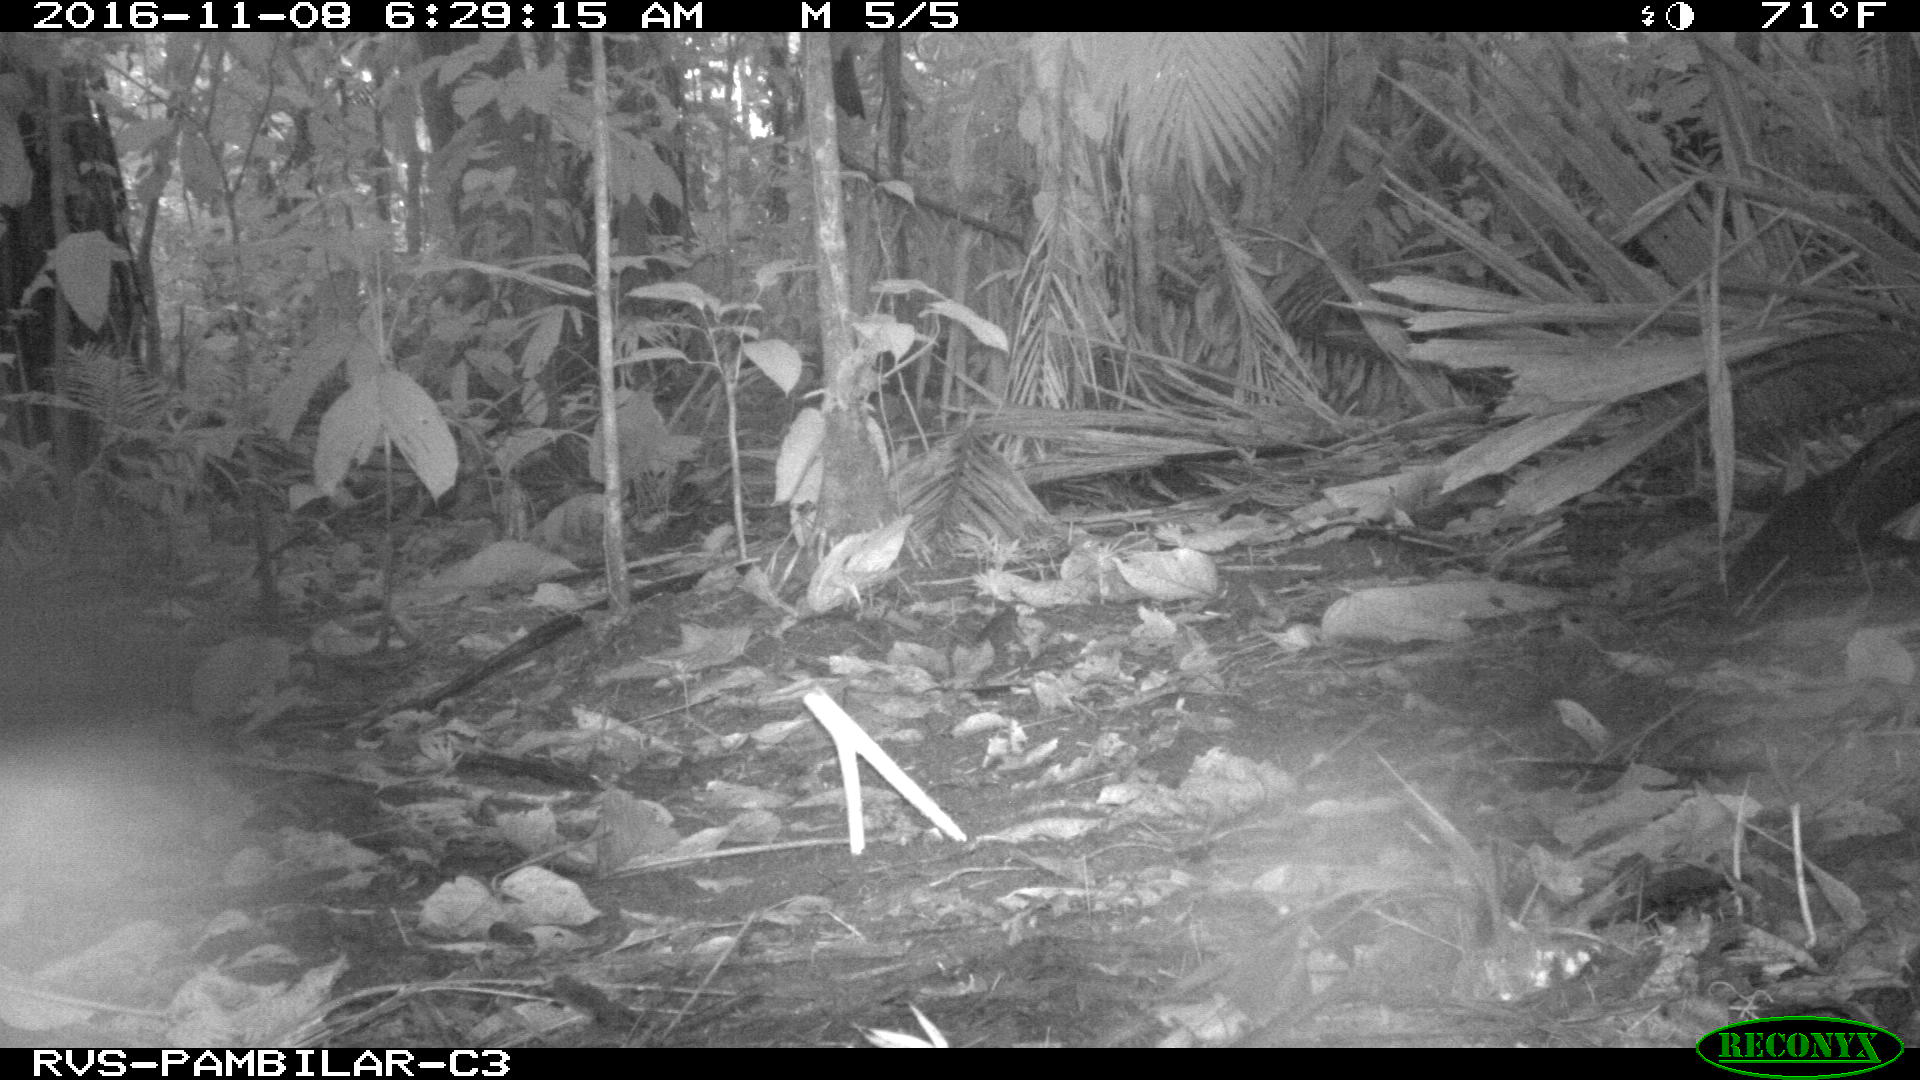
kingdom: Animalia
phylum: Chordata
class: Mammalia
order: Rodentia
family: Dasyproctidae
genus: Dasyprocta
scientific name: Dasyprocta punctata
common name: Central american agouti
